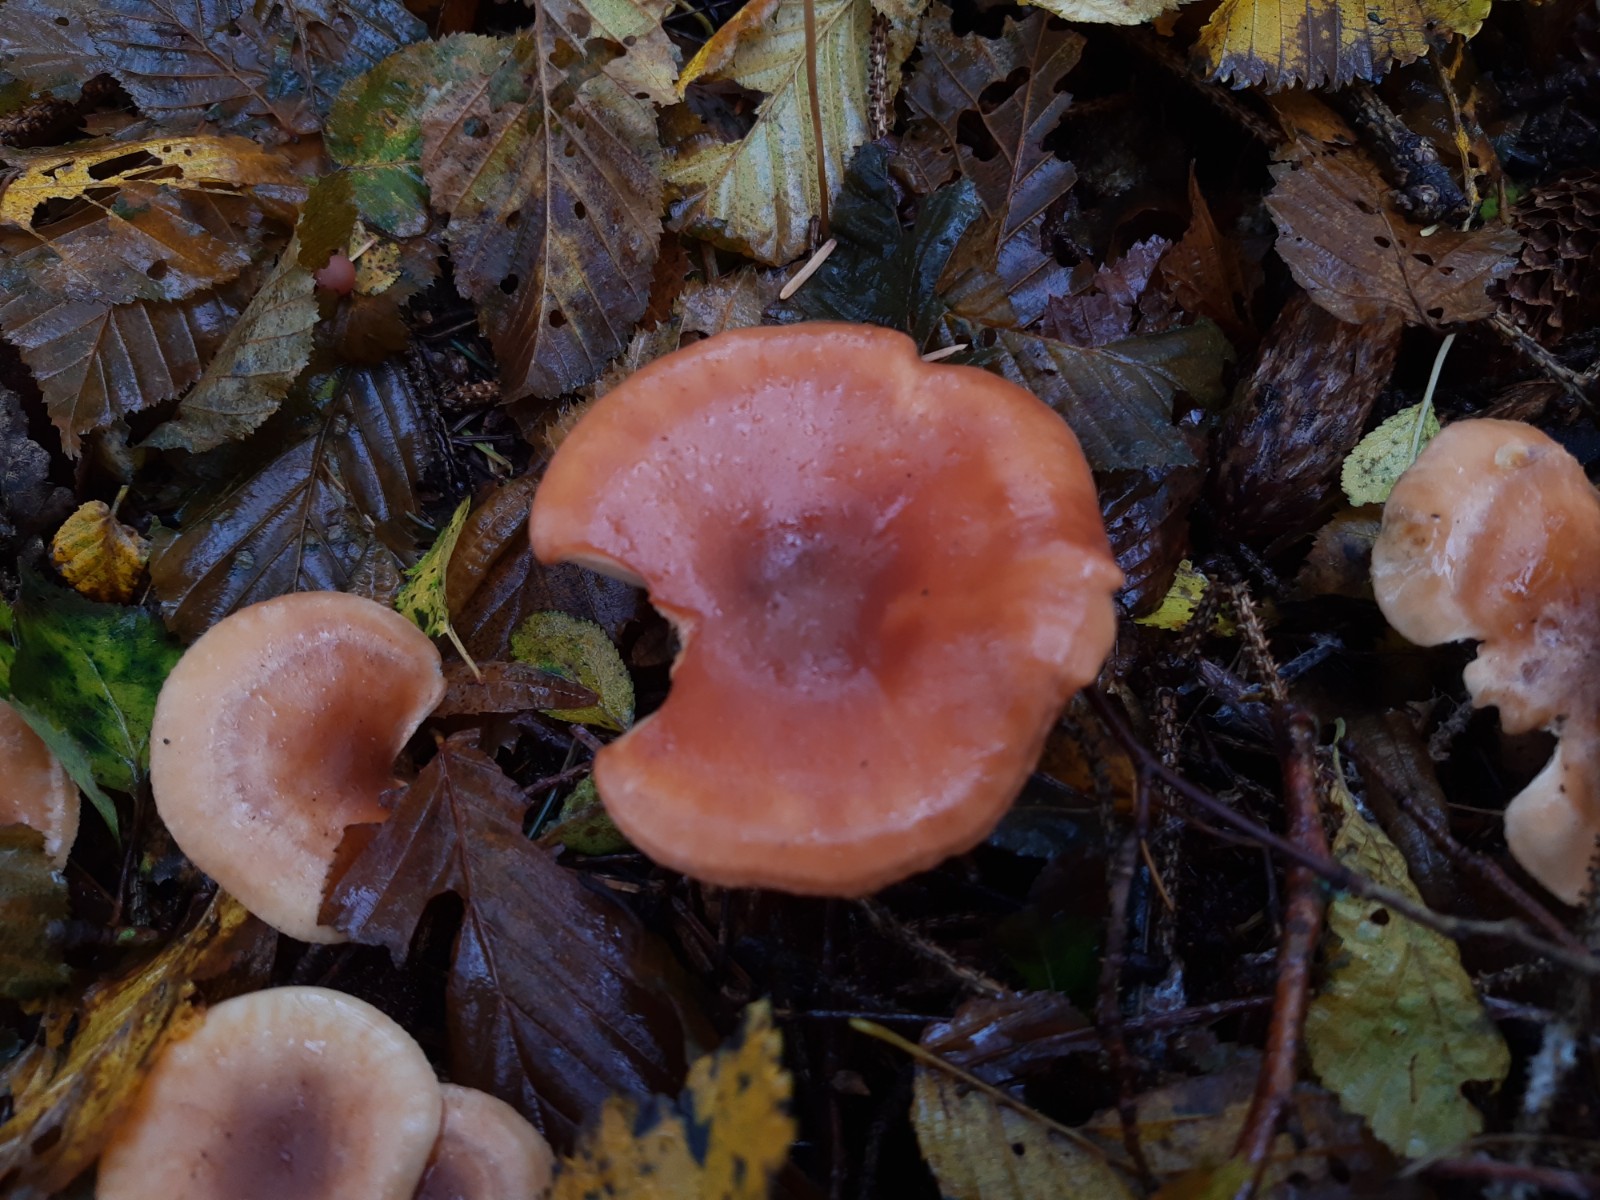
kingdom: Fungi
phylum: Basidiomycota
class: Agaricomycetes
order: Agaricales
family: Tricholomataceae
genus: Paralepista
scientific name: Paralepista flaccida
